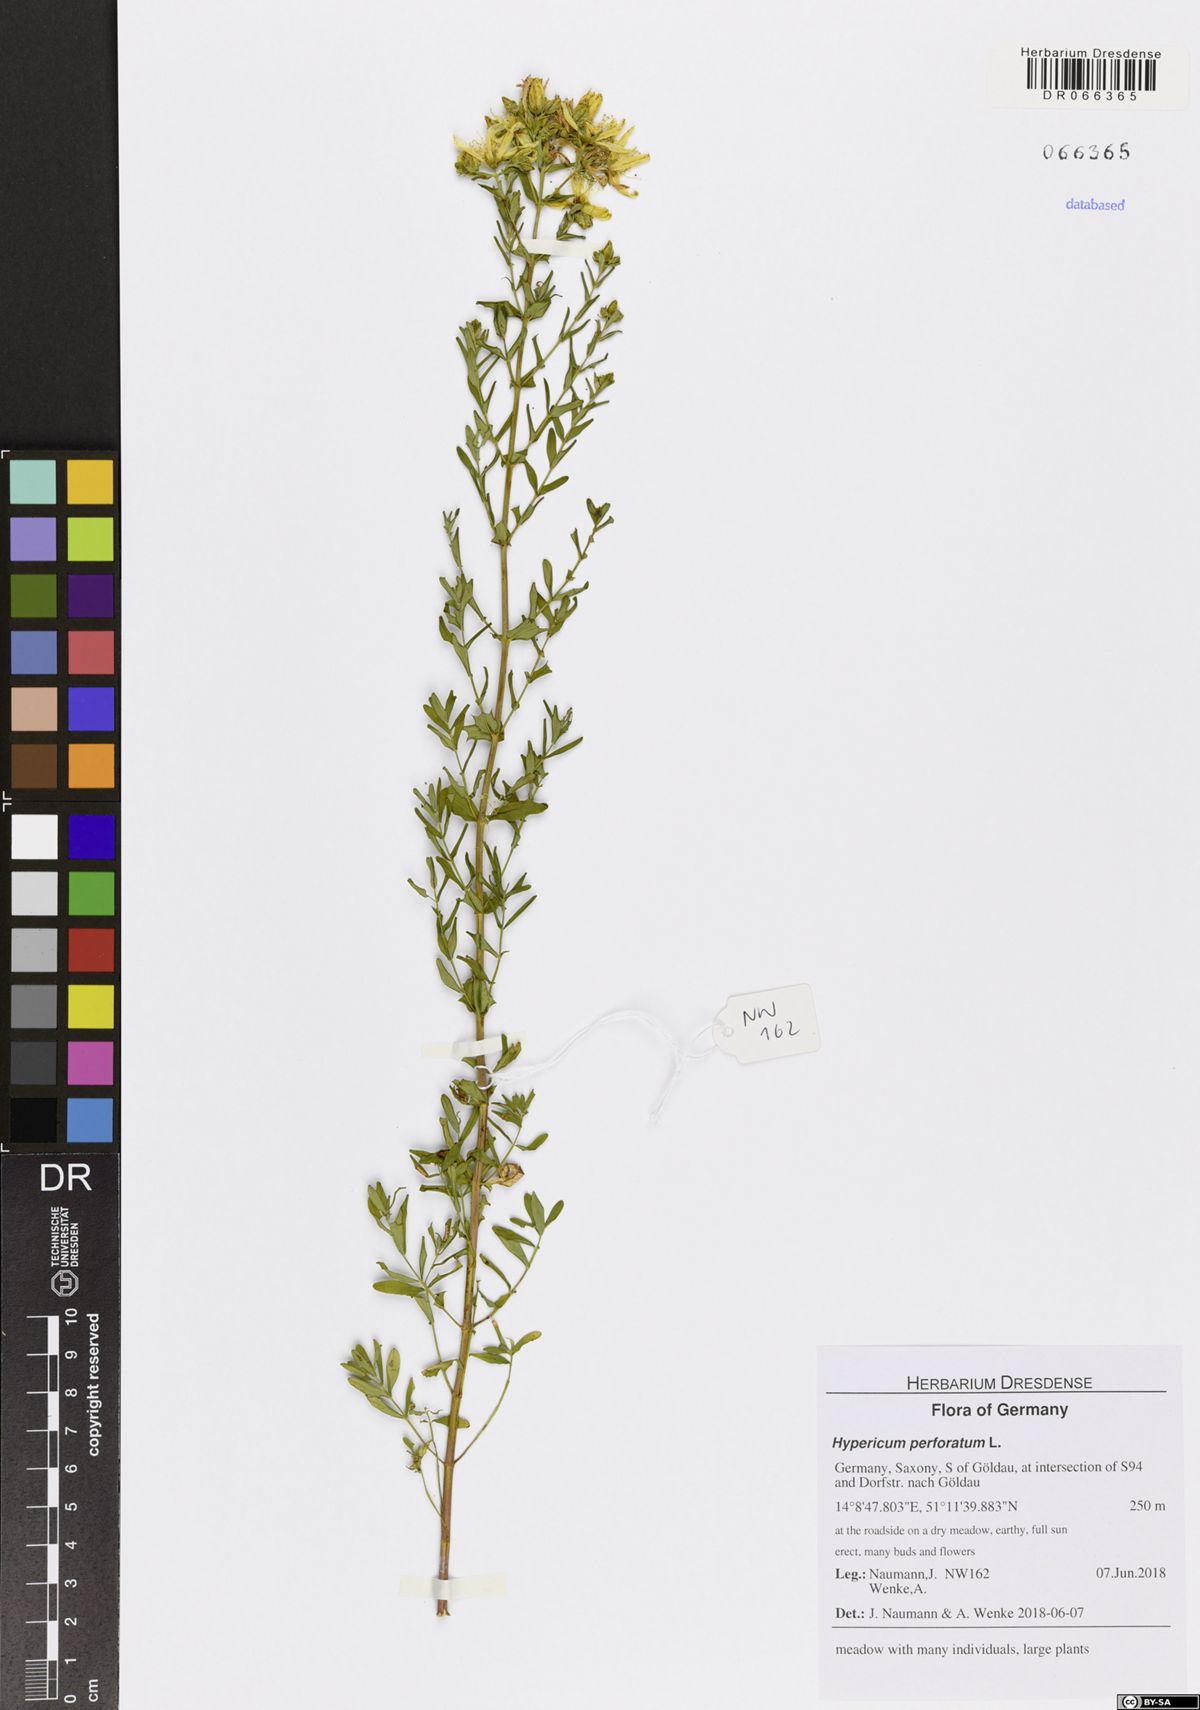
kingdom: Plantae
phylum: Tracheophyta
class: Magnoliopsida
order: Malpighiales
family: Hypericaceae
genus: Hypericum
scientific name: Hypericum perforatum
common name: Common st. johnswort
